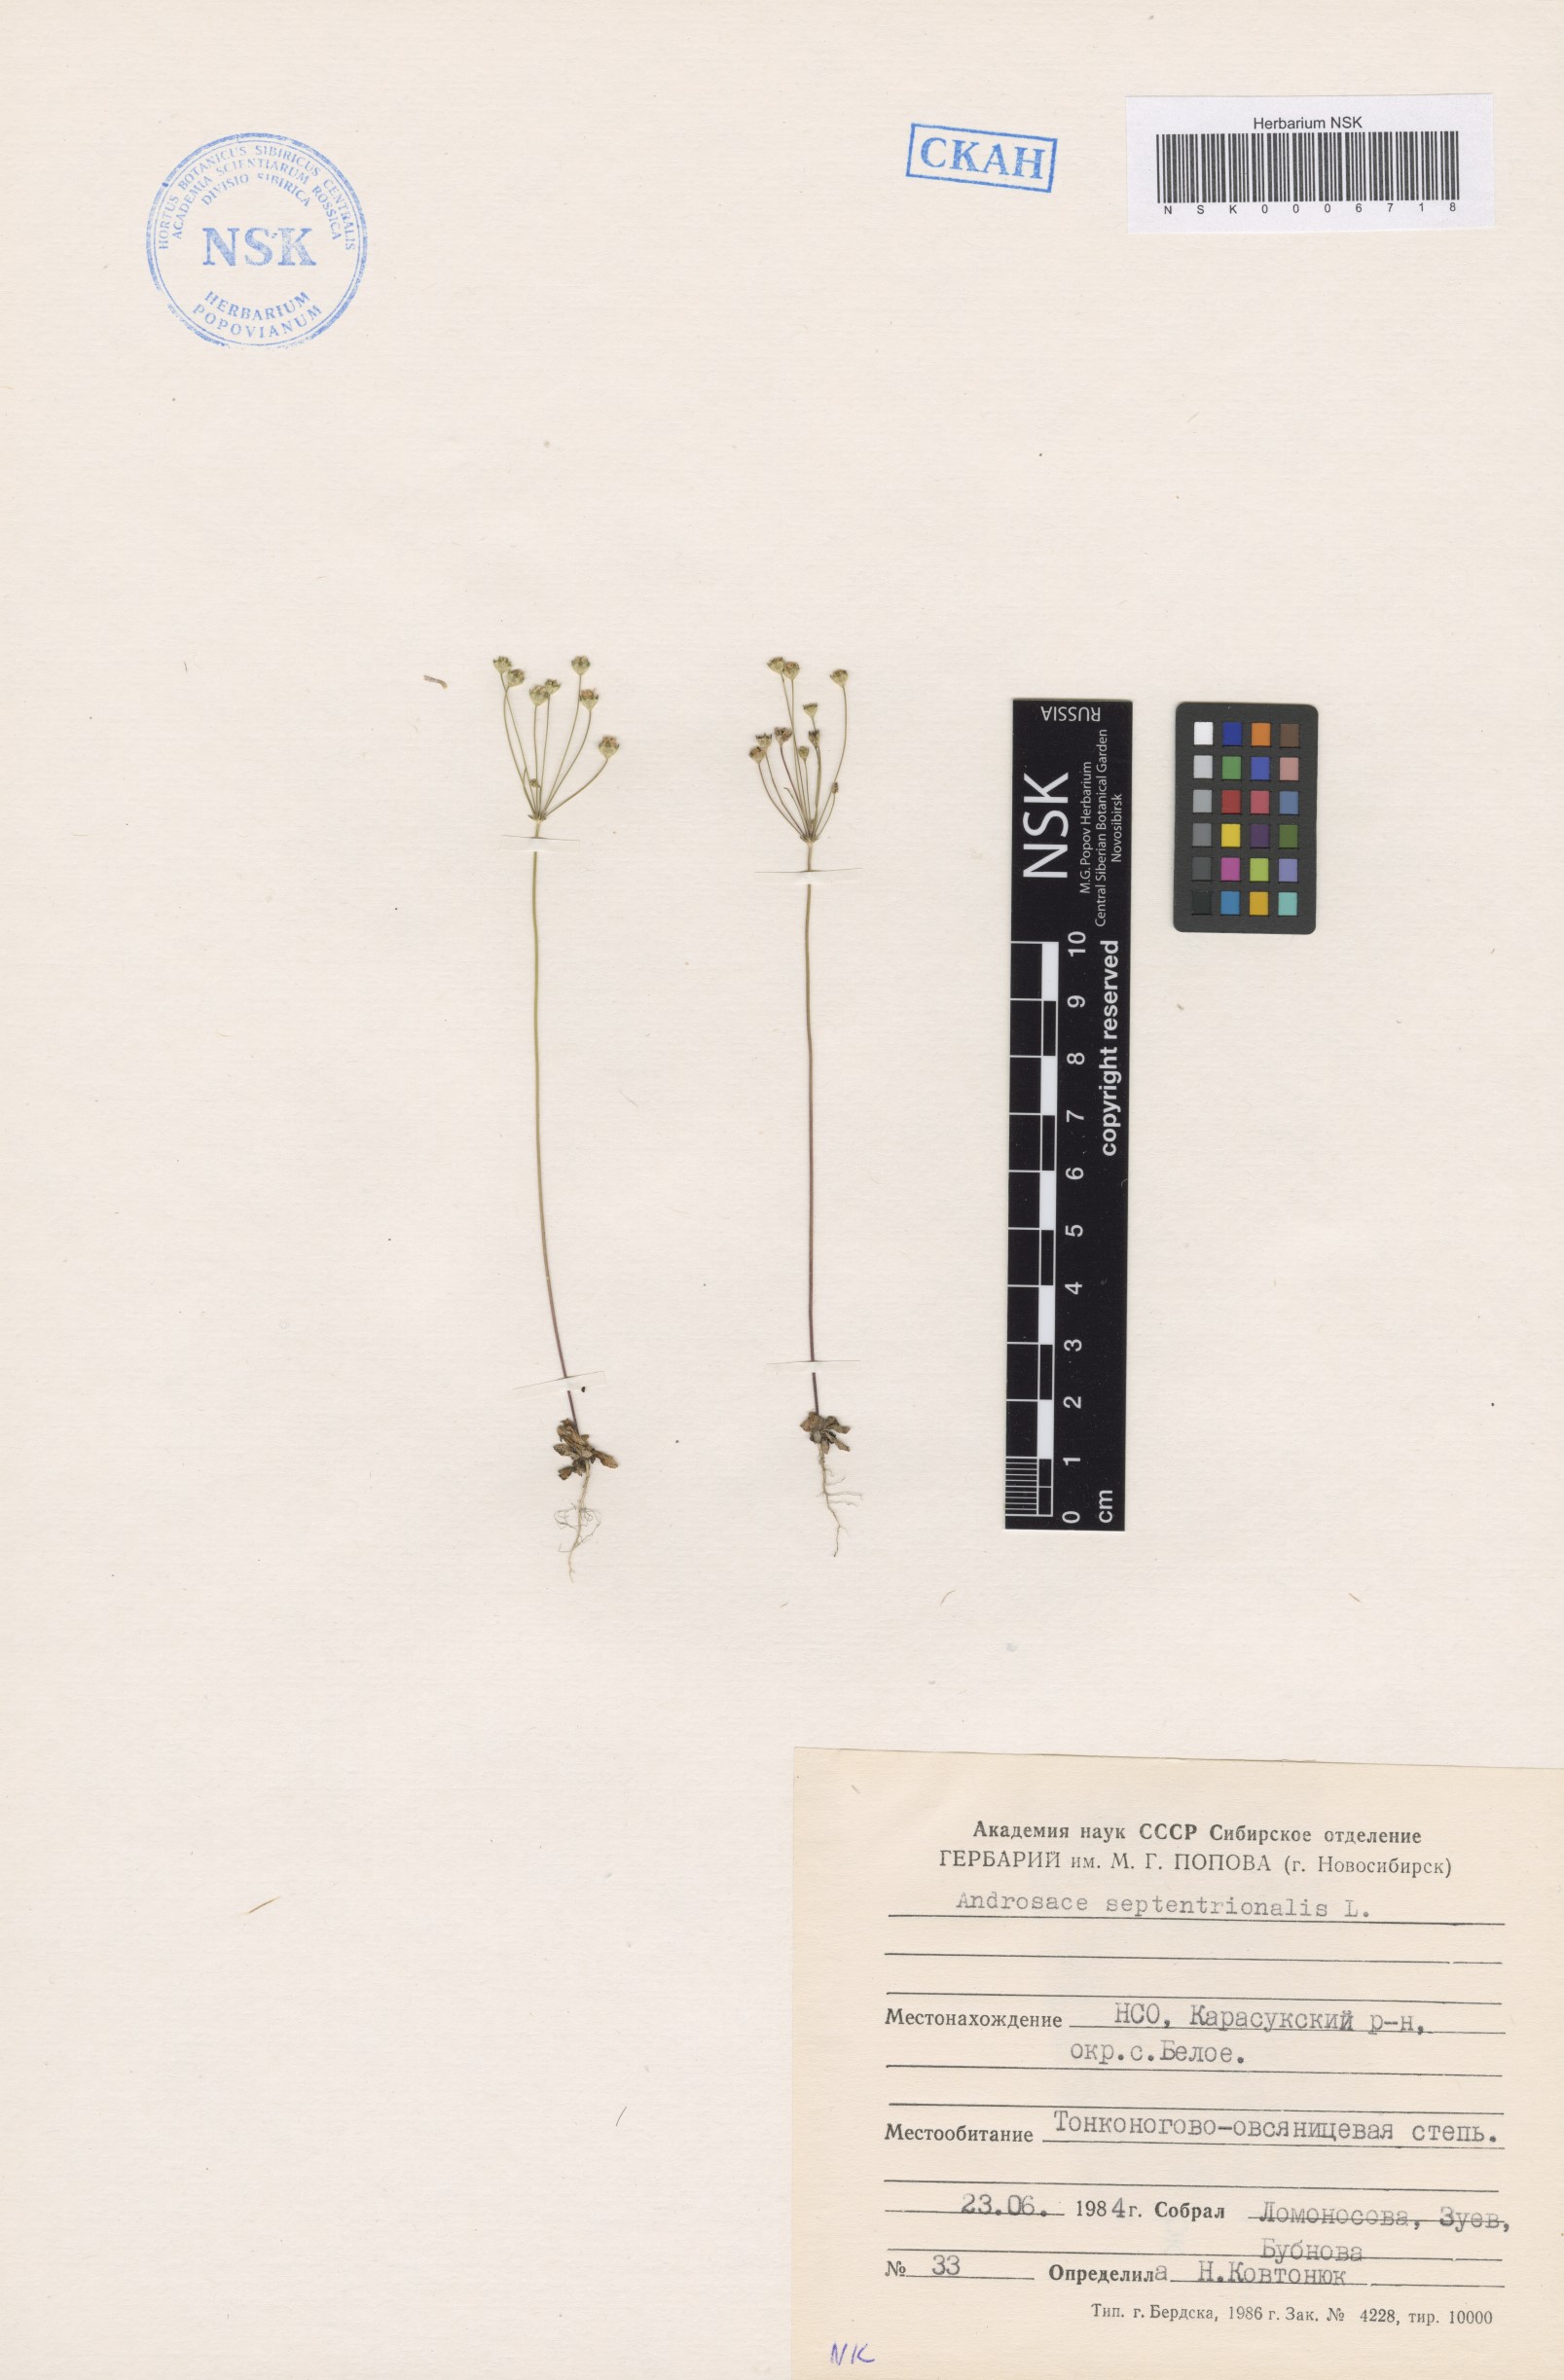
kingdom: Plantae
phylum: Tracheophyta
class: Magnoliopsida
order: Ericales
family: Primulaceae
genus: Androsace
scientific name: Androsace septentrionalis
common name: Hairy northern fairy-candelabra
